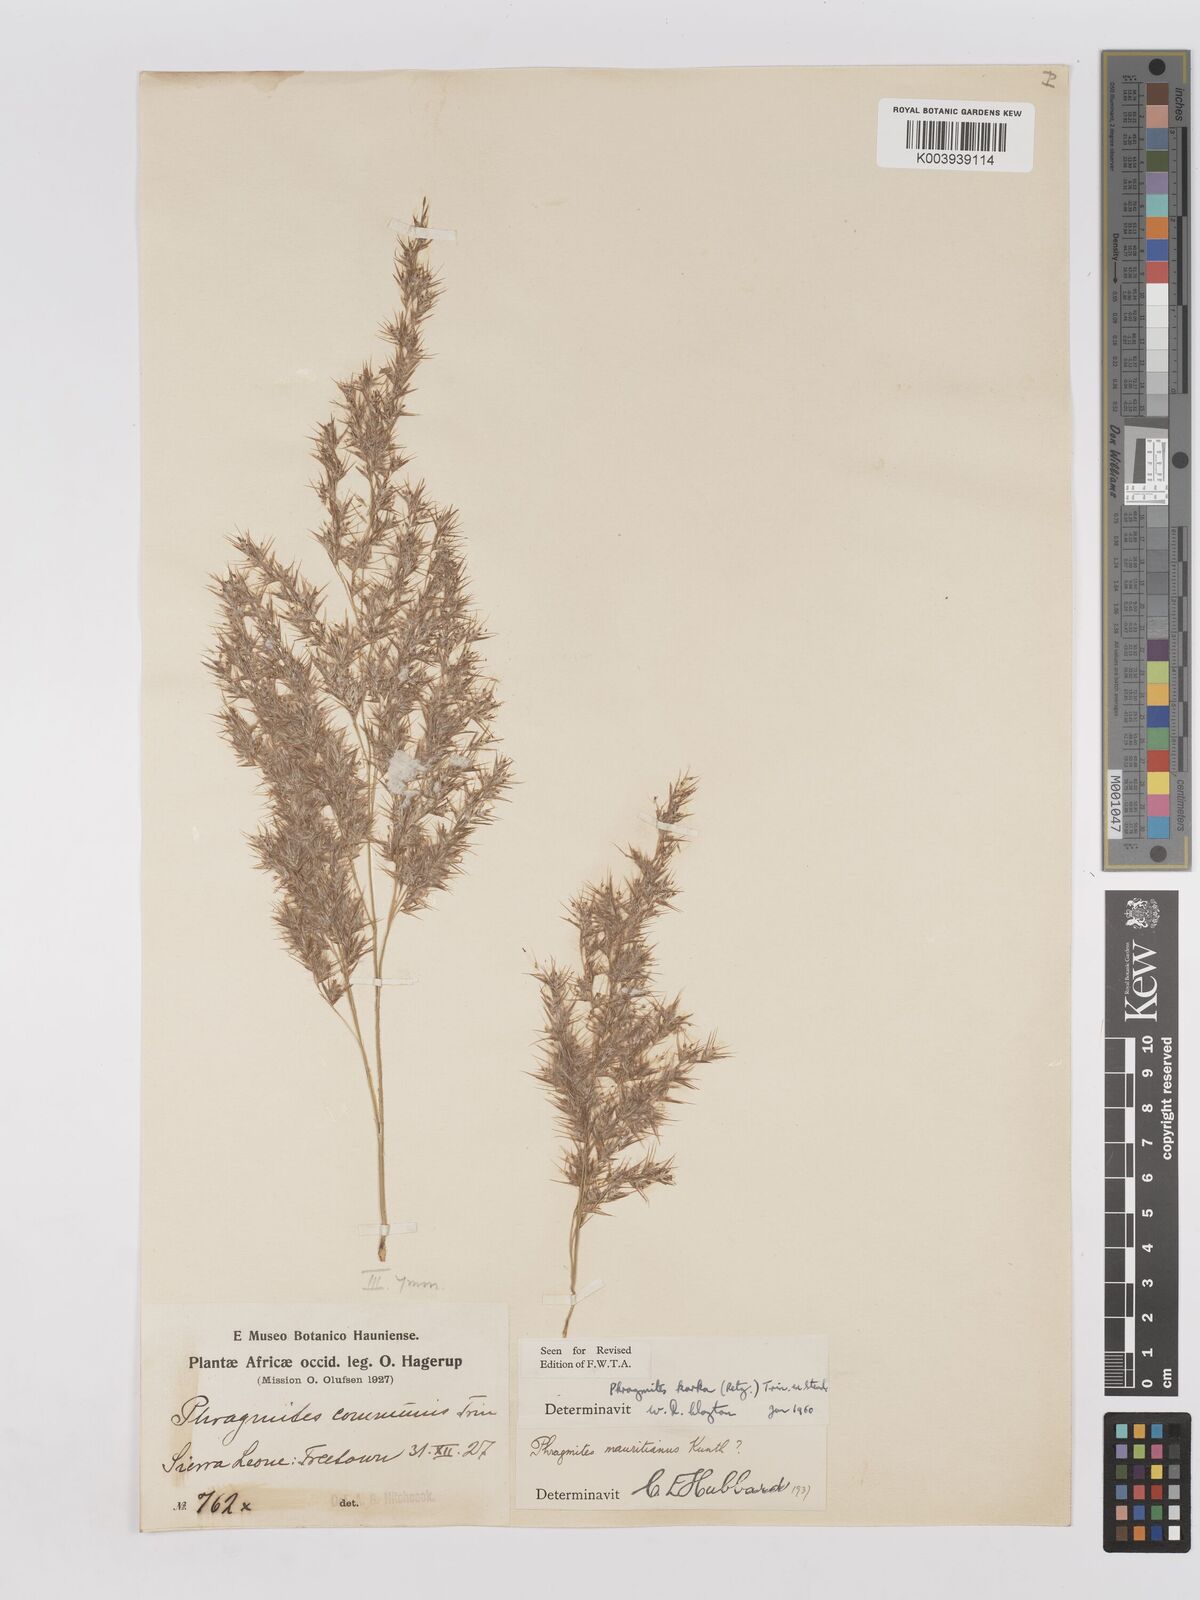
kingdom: Plantae
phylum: Tracheophyta
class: Liliopsida
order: Poales
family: Poaceae
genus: Phragmites
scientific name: Phragmites karka
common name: Tropical reed
